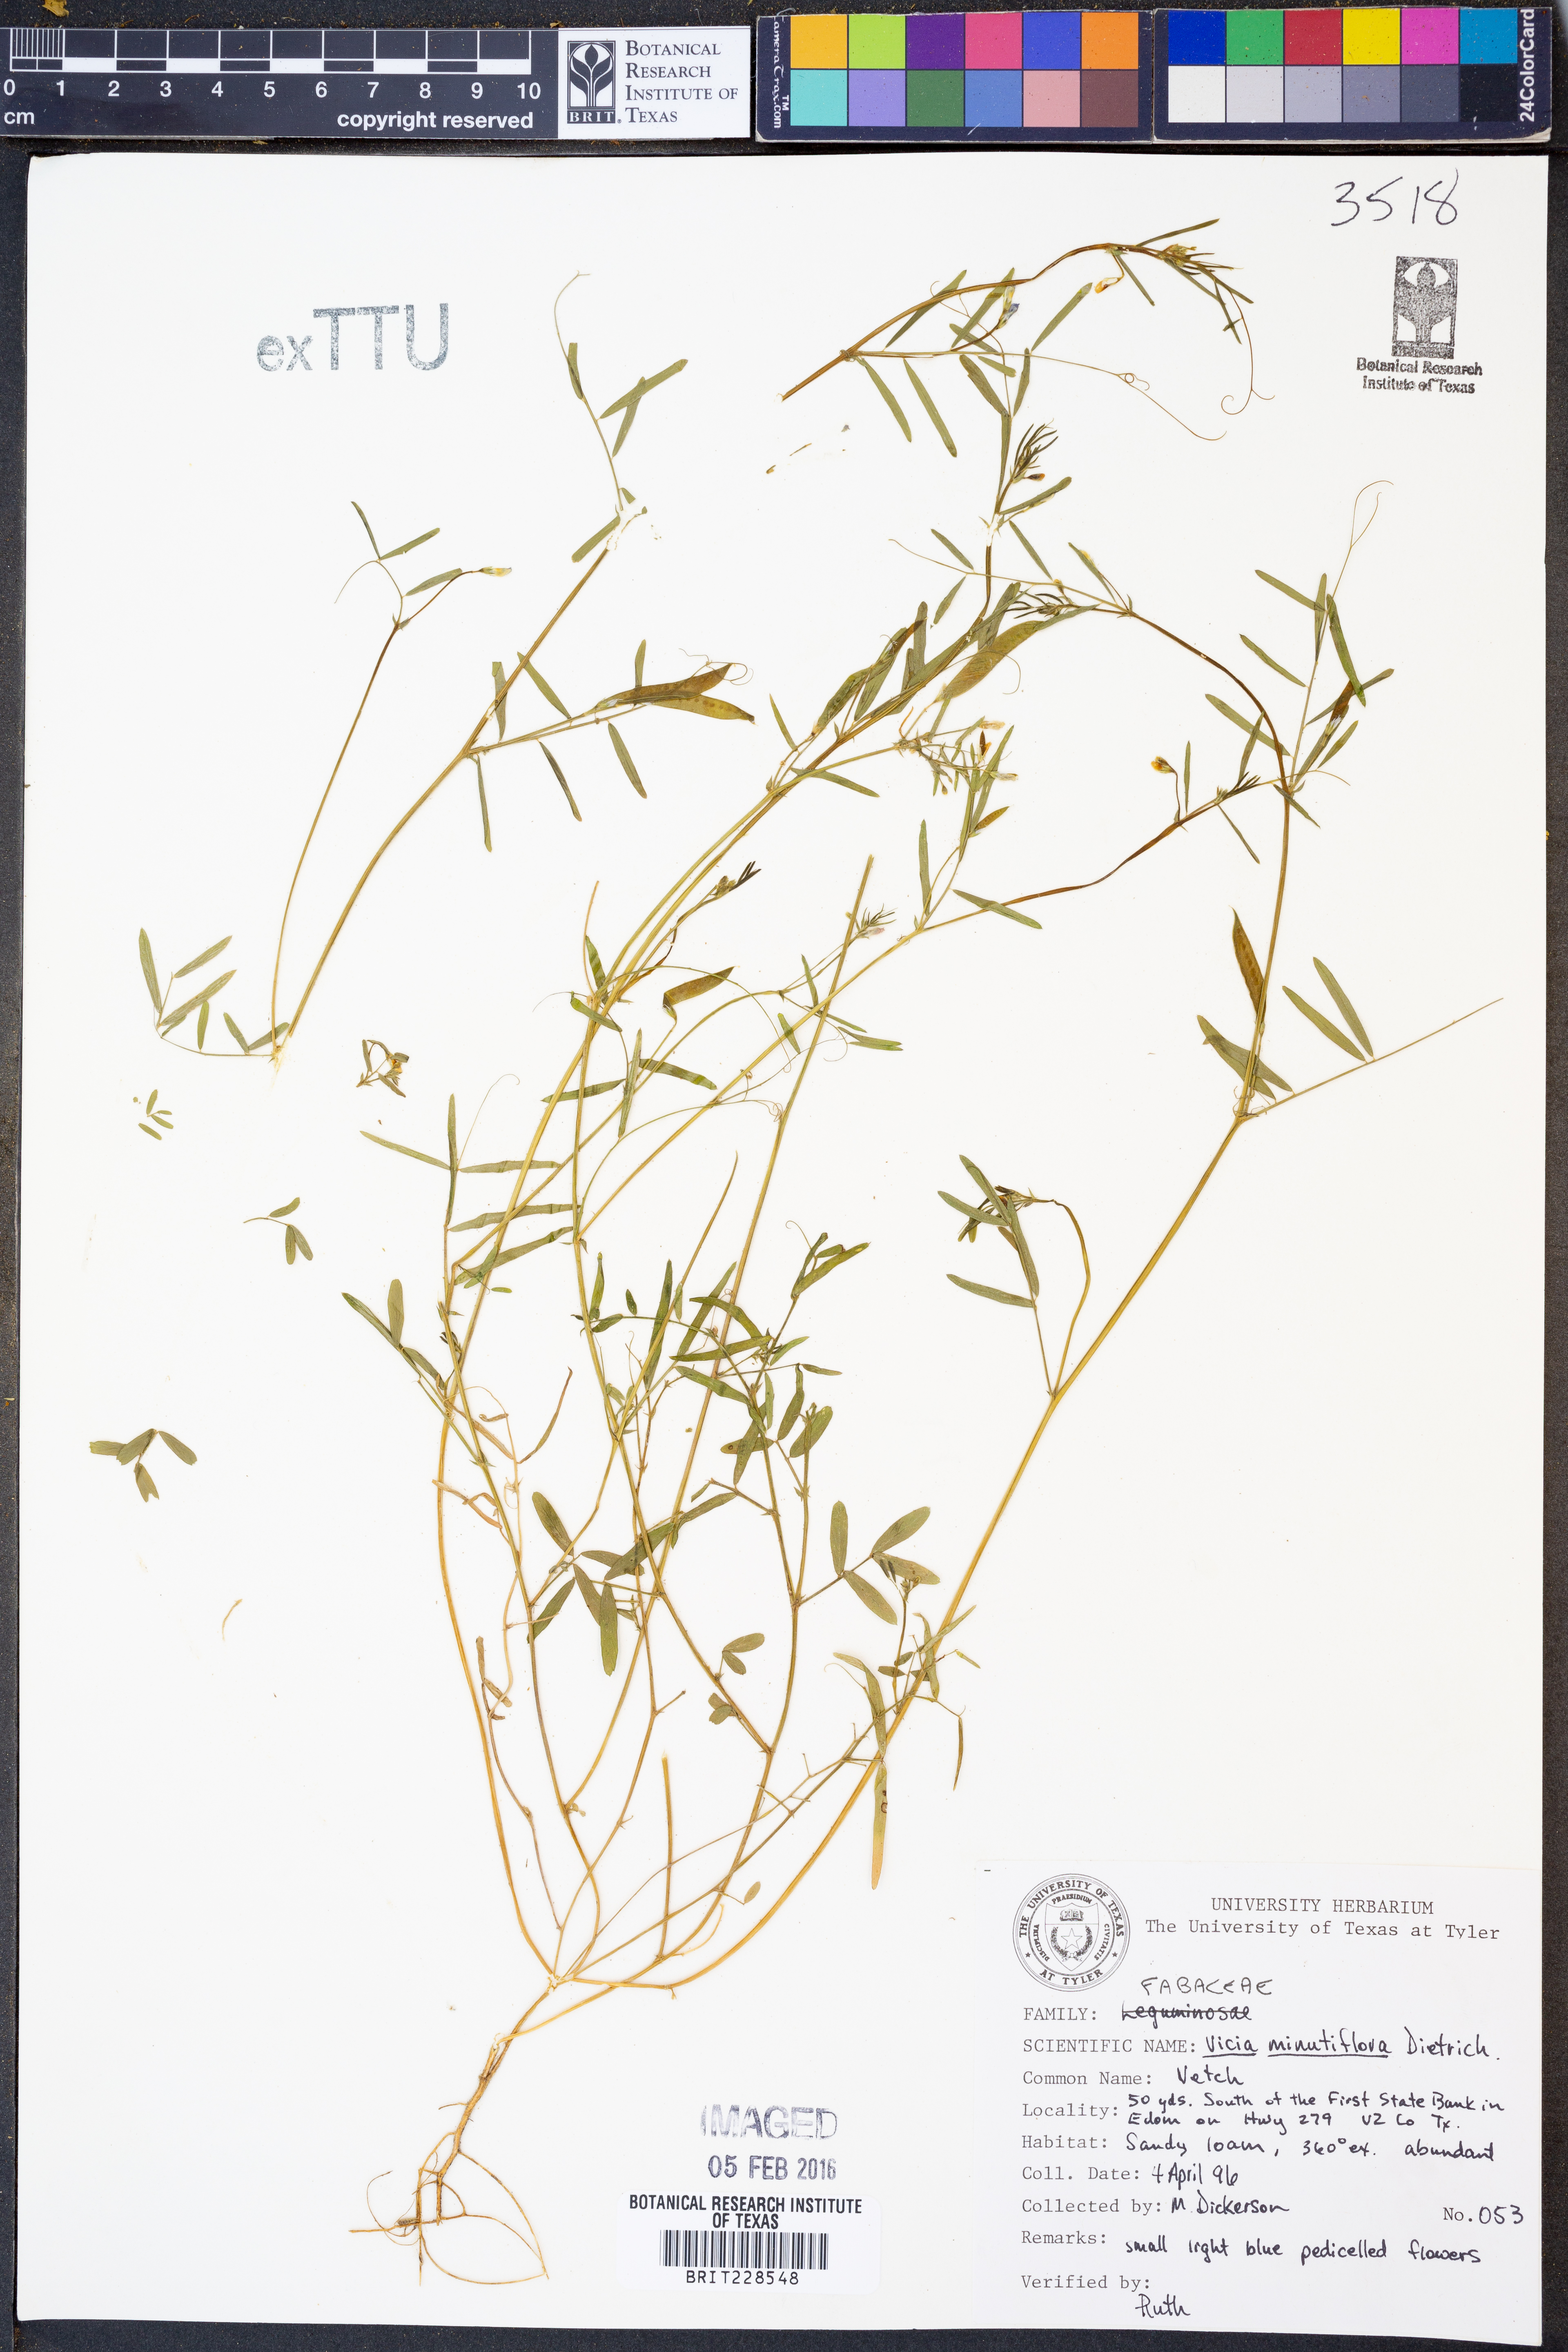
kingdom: Plantae
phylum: Tracheophyta
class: Magnoliopsida
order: Fabales
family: Fabaceae
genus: Vicia
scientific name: Vicia minutiflora
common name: Pygmy-flower vetch
